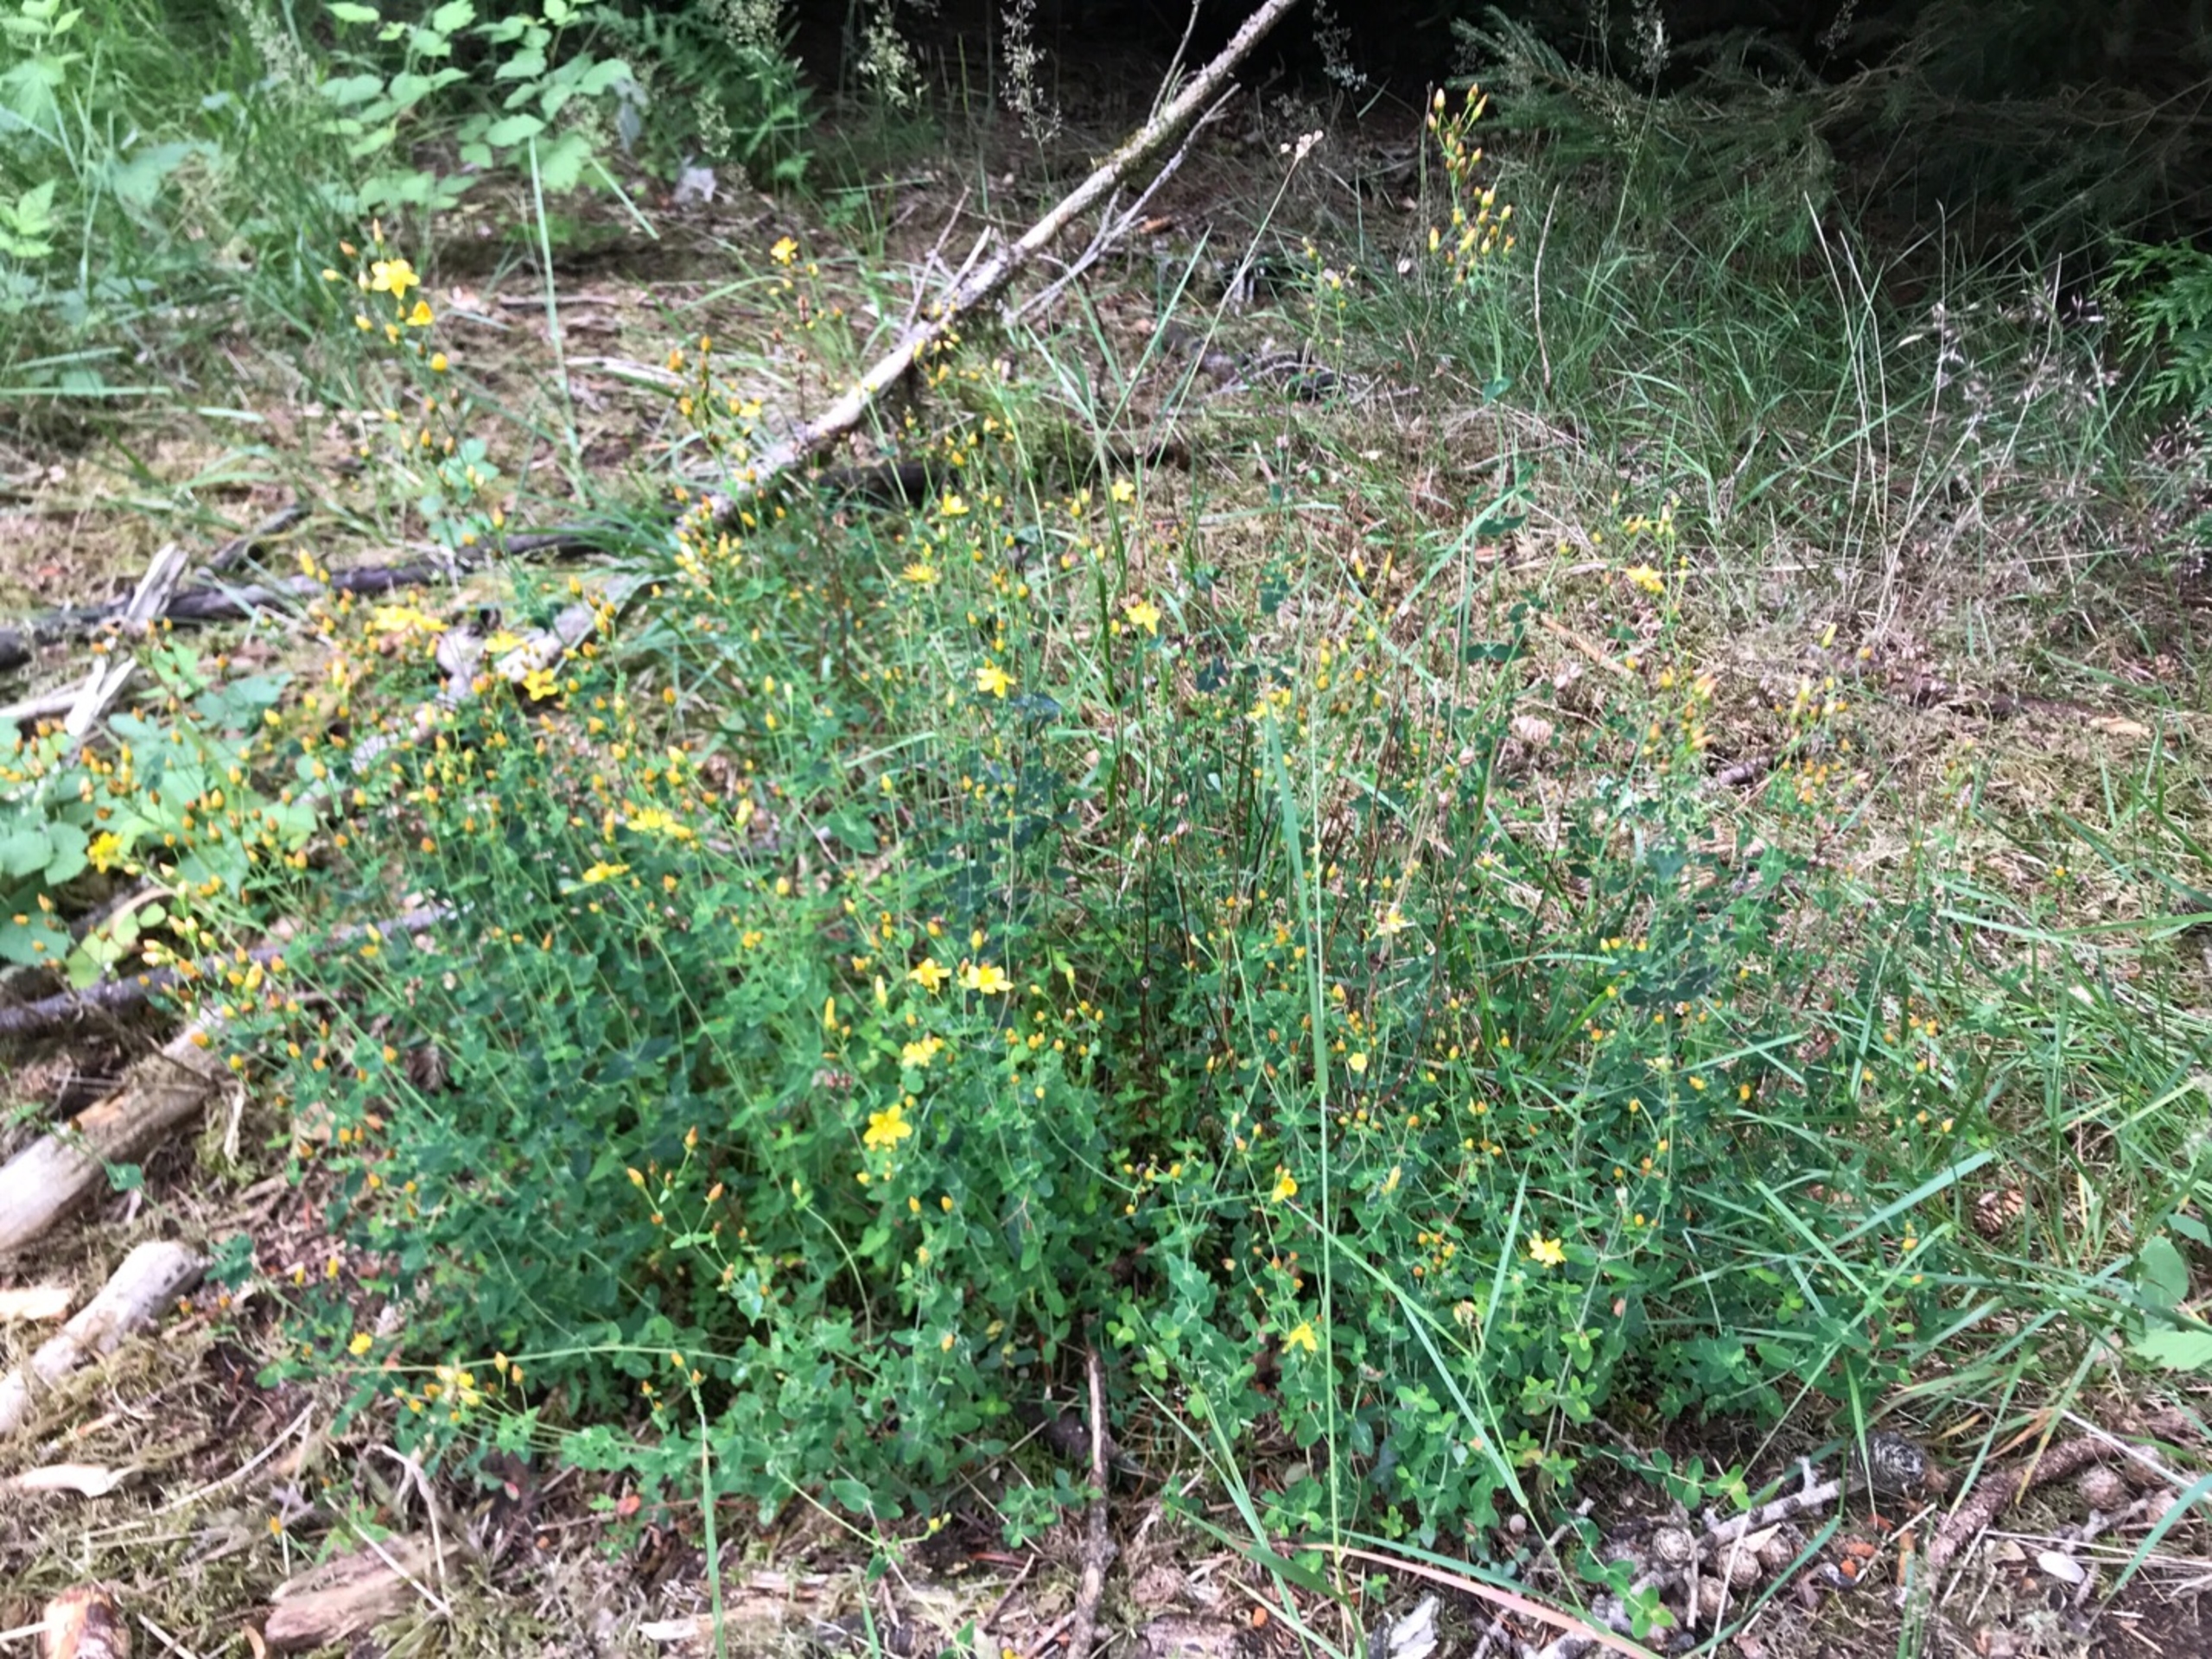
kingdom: Plantae
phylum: Tracheophyta
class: Magnoliopsida
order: Malpighiales
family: Hypericaceae
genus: Hypericum
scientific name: Hypericum pulchrum
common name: Smuk perikon
